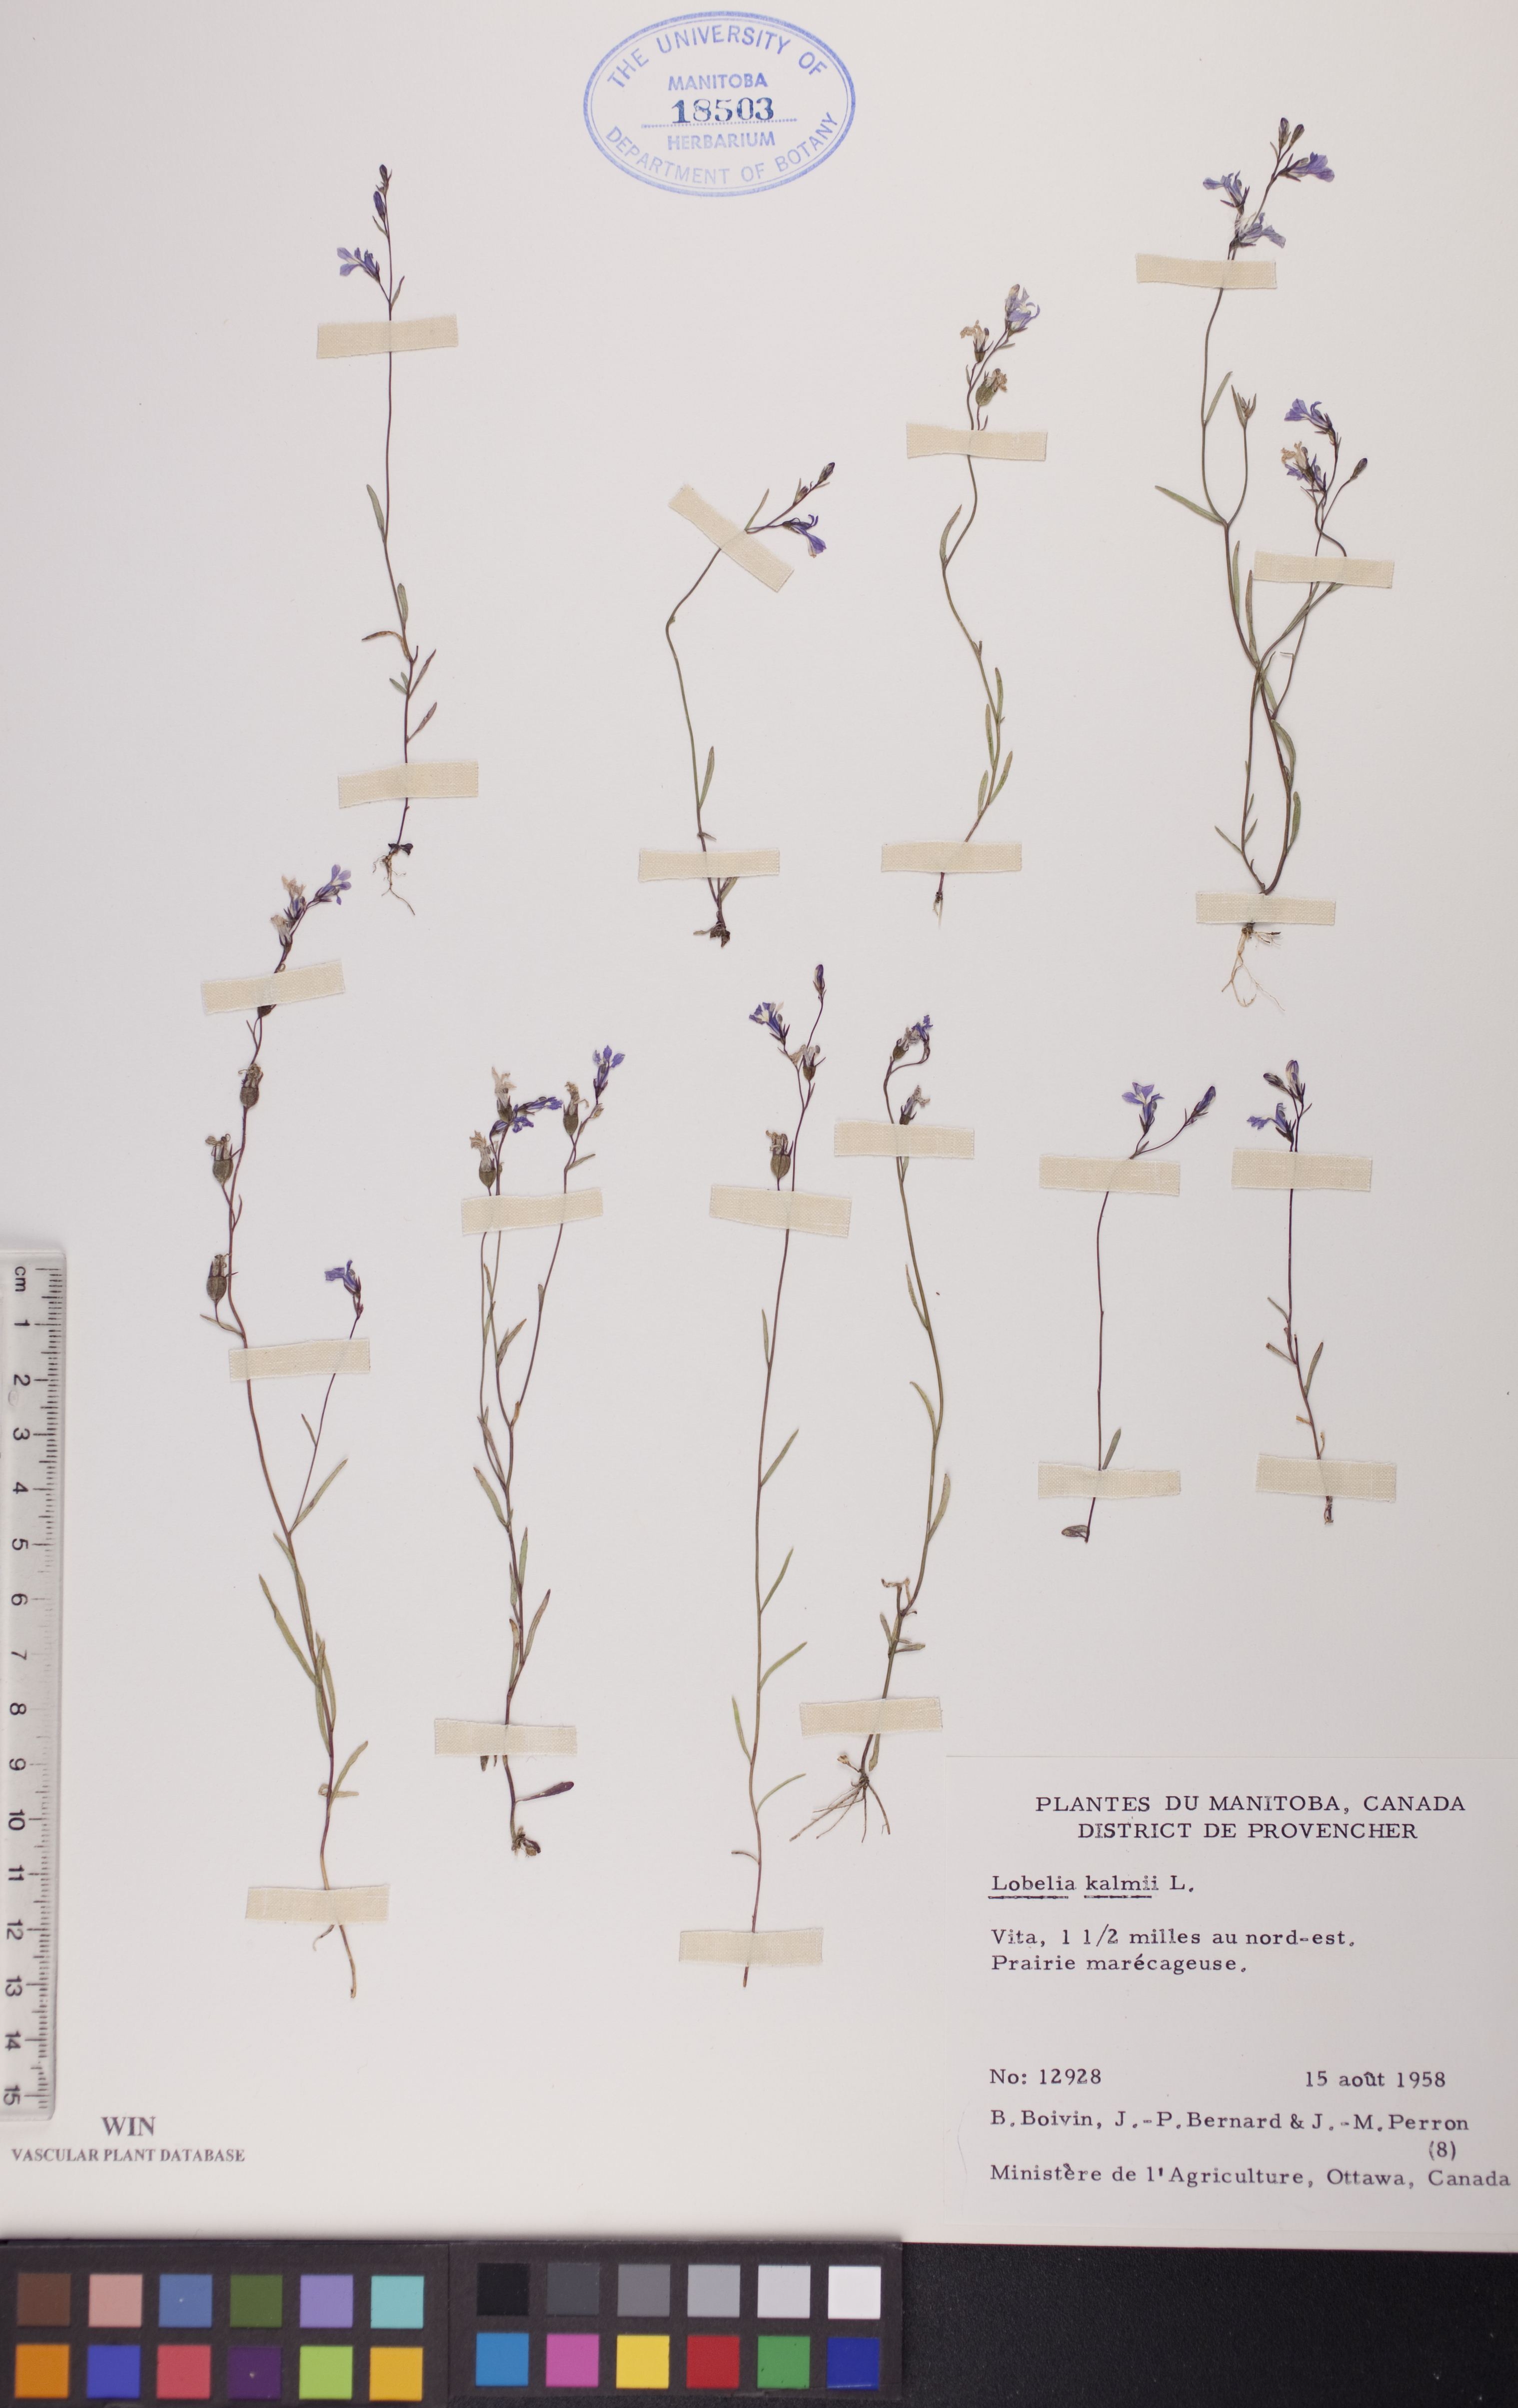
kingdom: Plantae
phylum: Tracheophyta
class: Magnoliopsida
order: Asterales
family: Campanulaceae
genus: Lobelia
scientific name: Lobelia kalmii
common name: Kalm's lobelia
